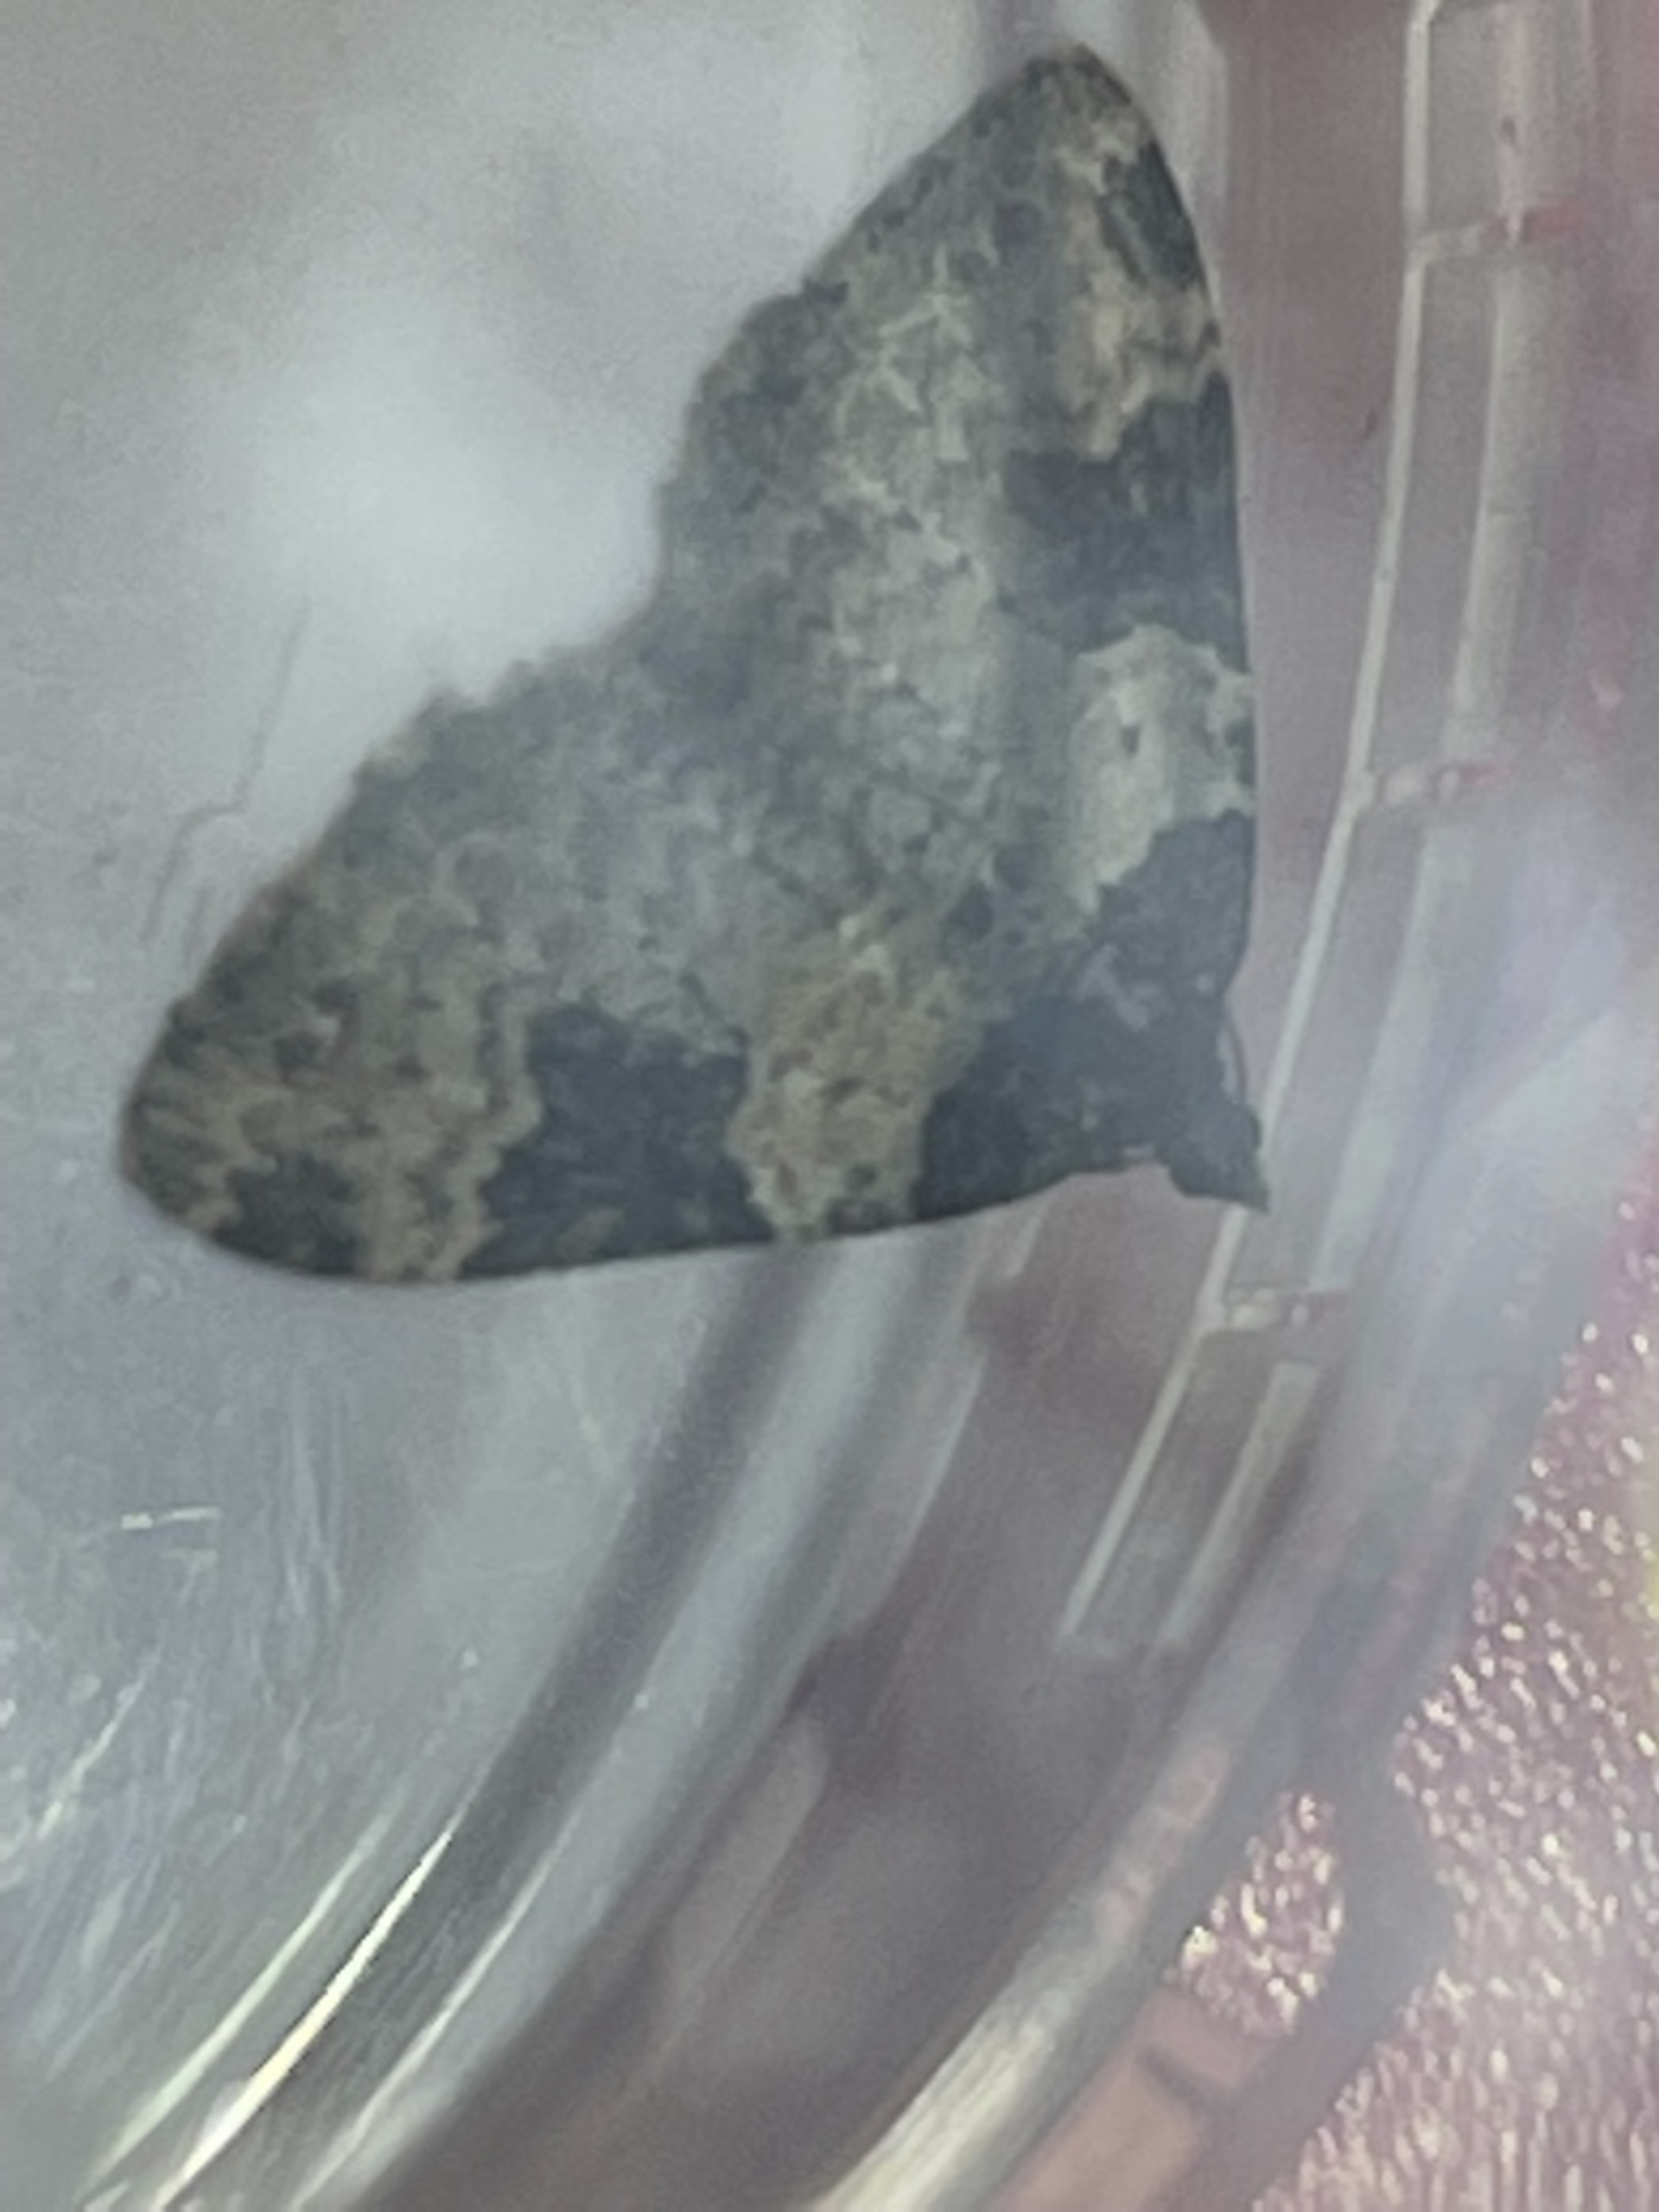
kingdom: Animalia
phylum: Arthropoda
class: Insecta
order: Lepidoptera
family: Geometridae
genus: Xanthorhoe
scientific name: Xanthorhoe fluctuata
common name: Sortbæltet bladmåler
